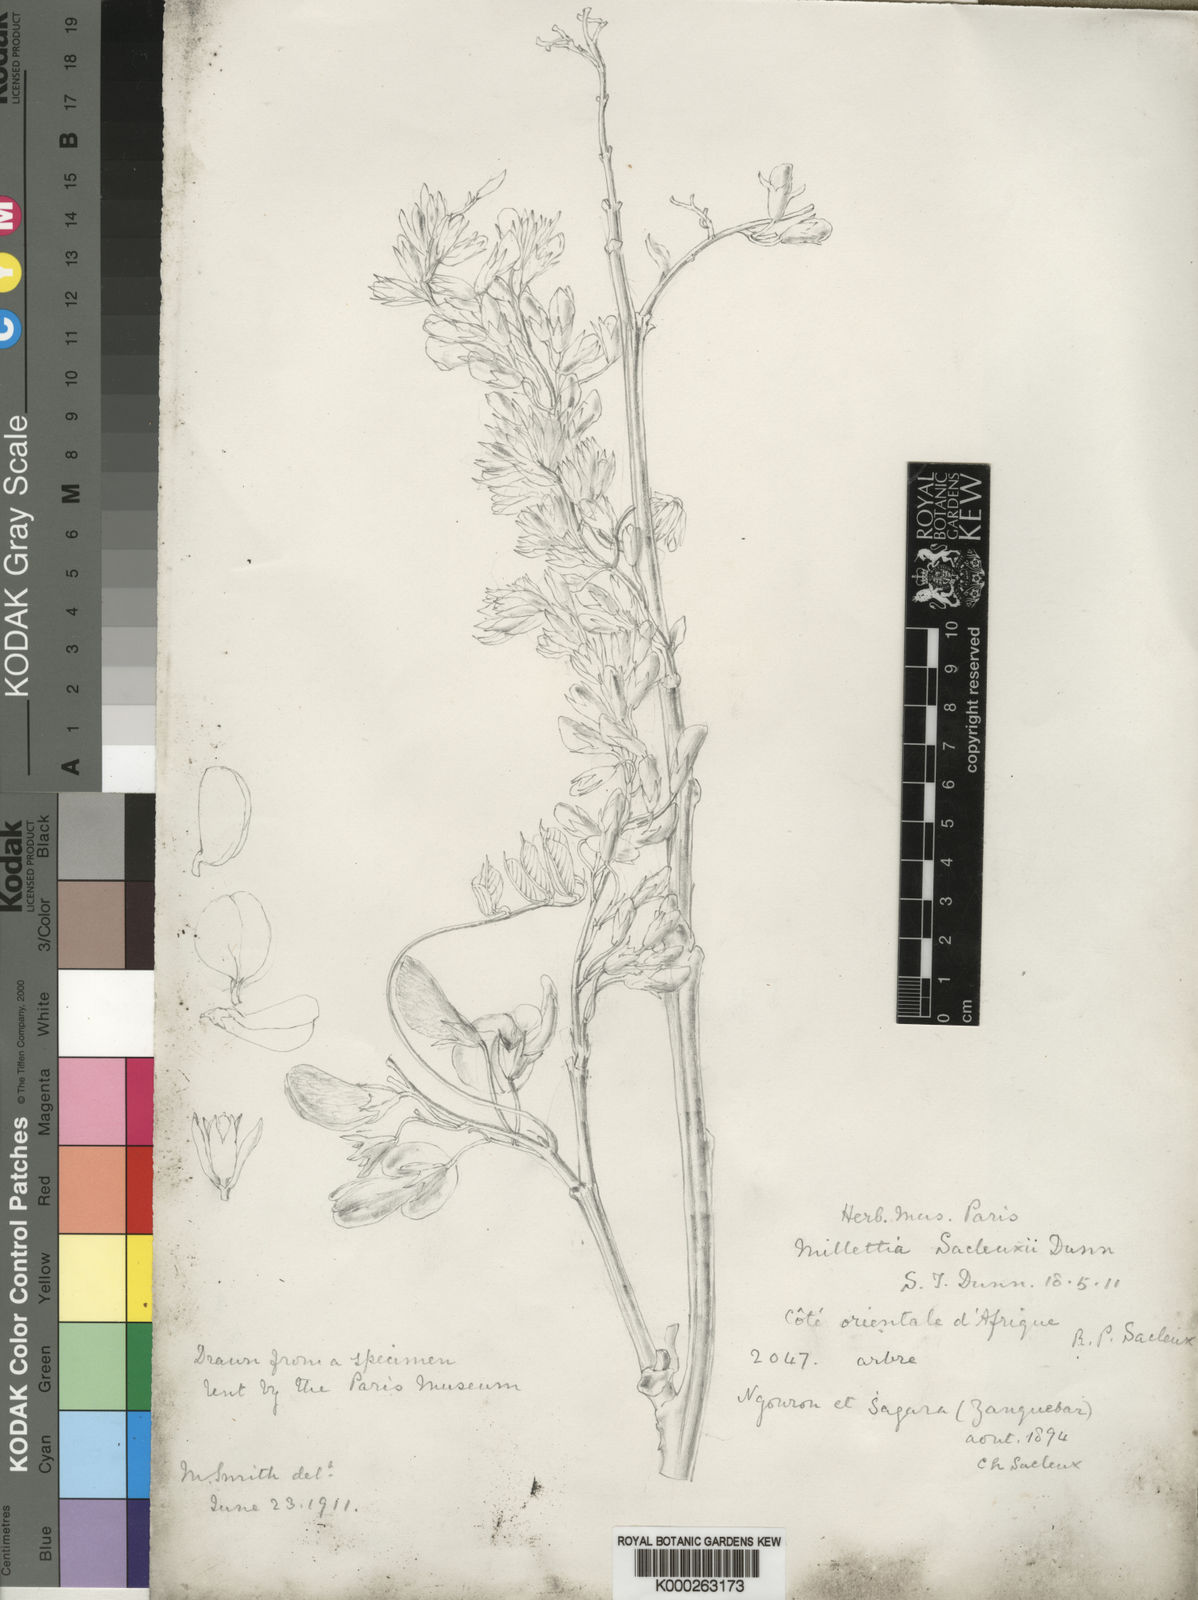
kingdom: Plantae
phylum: Tracheophyta
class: Magnoliopsida
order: Fabales
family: Fabaceae
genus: Millettia
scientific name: Millettia sacleuxii
